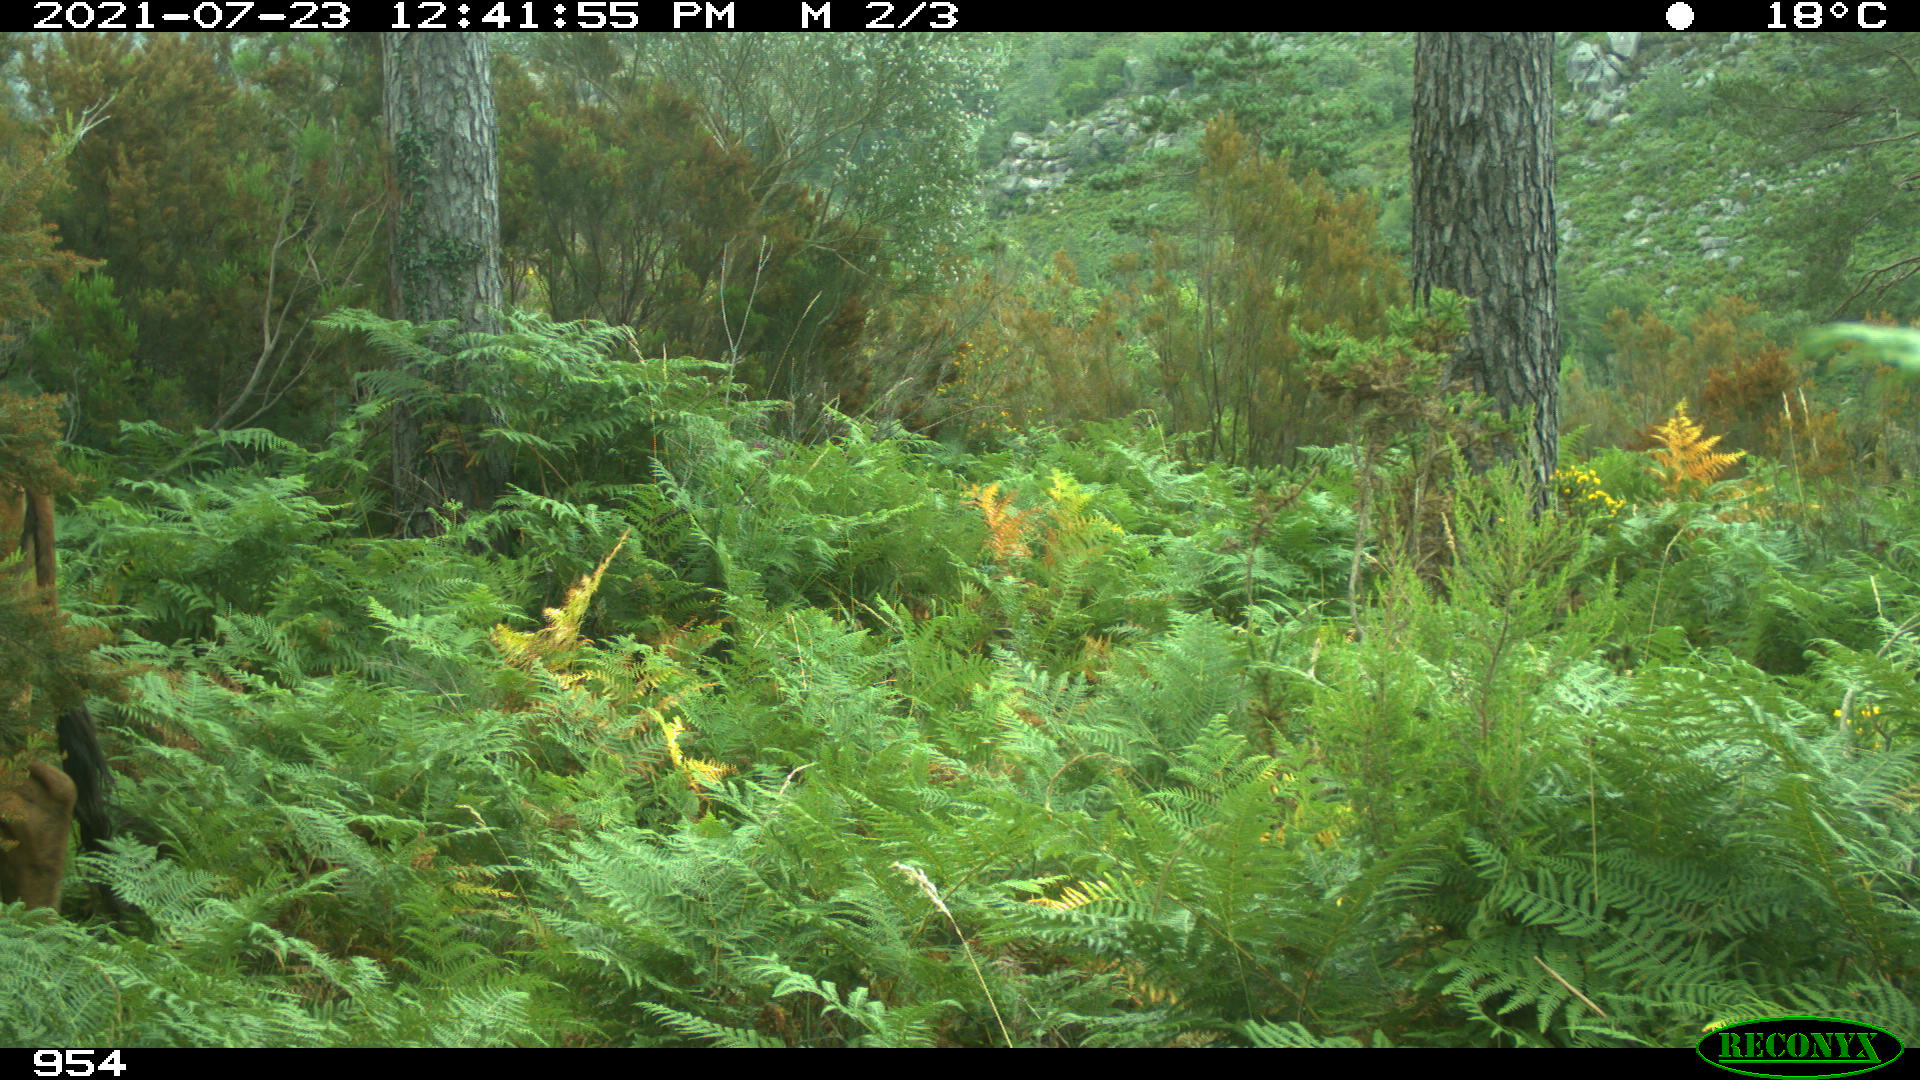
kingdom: Animalia
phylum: Chordata
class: Mammalia
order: Artiodactyla
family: Bovidae
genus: Bos
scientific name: Bos taurus
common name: Domesticated cattle
